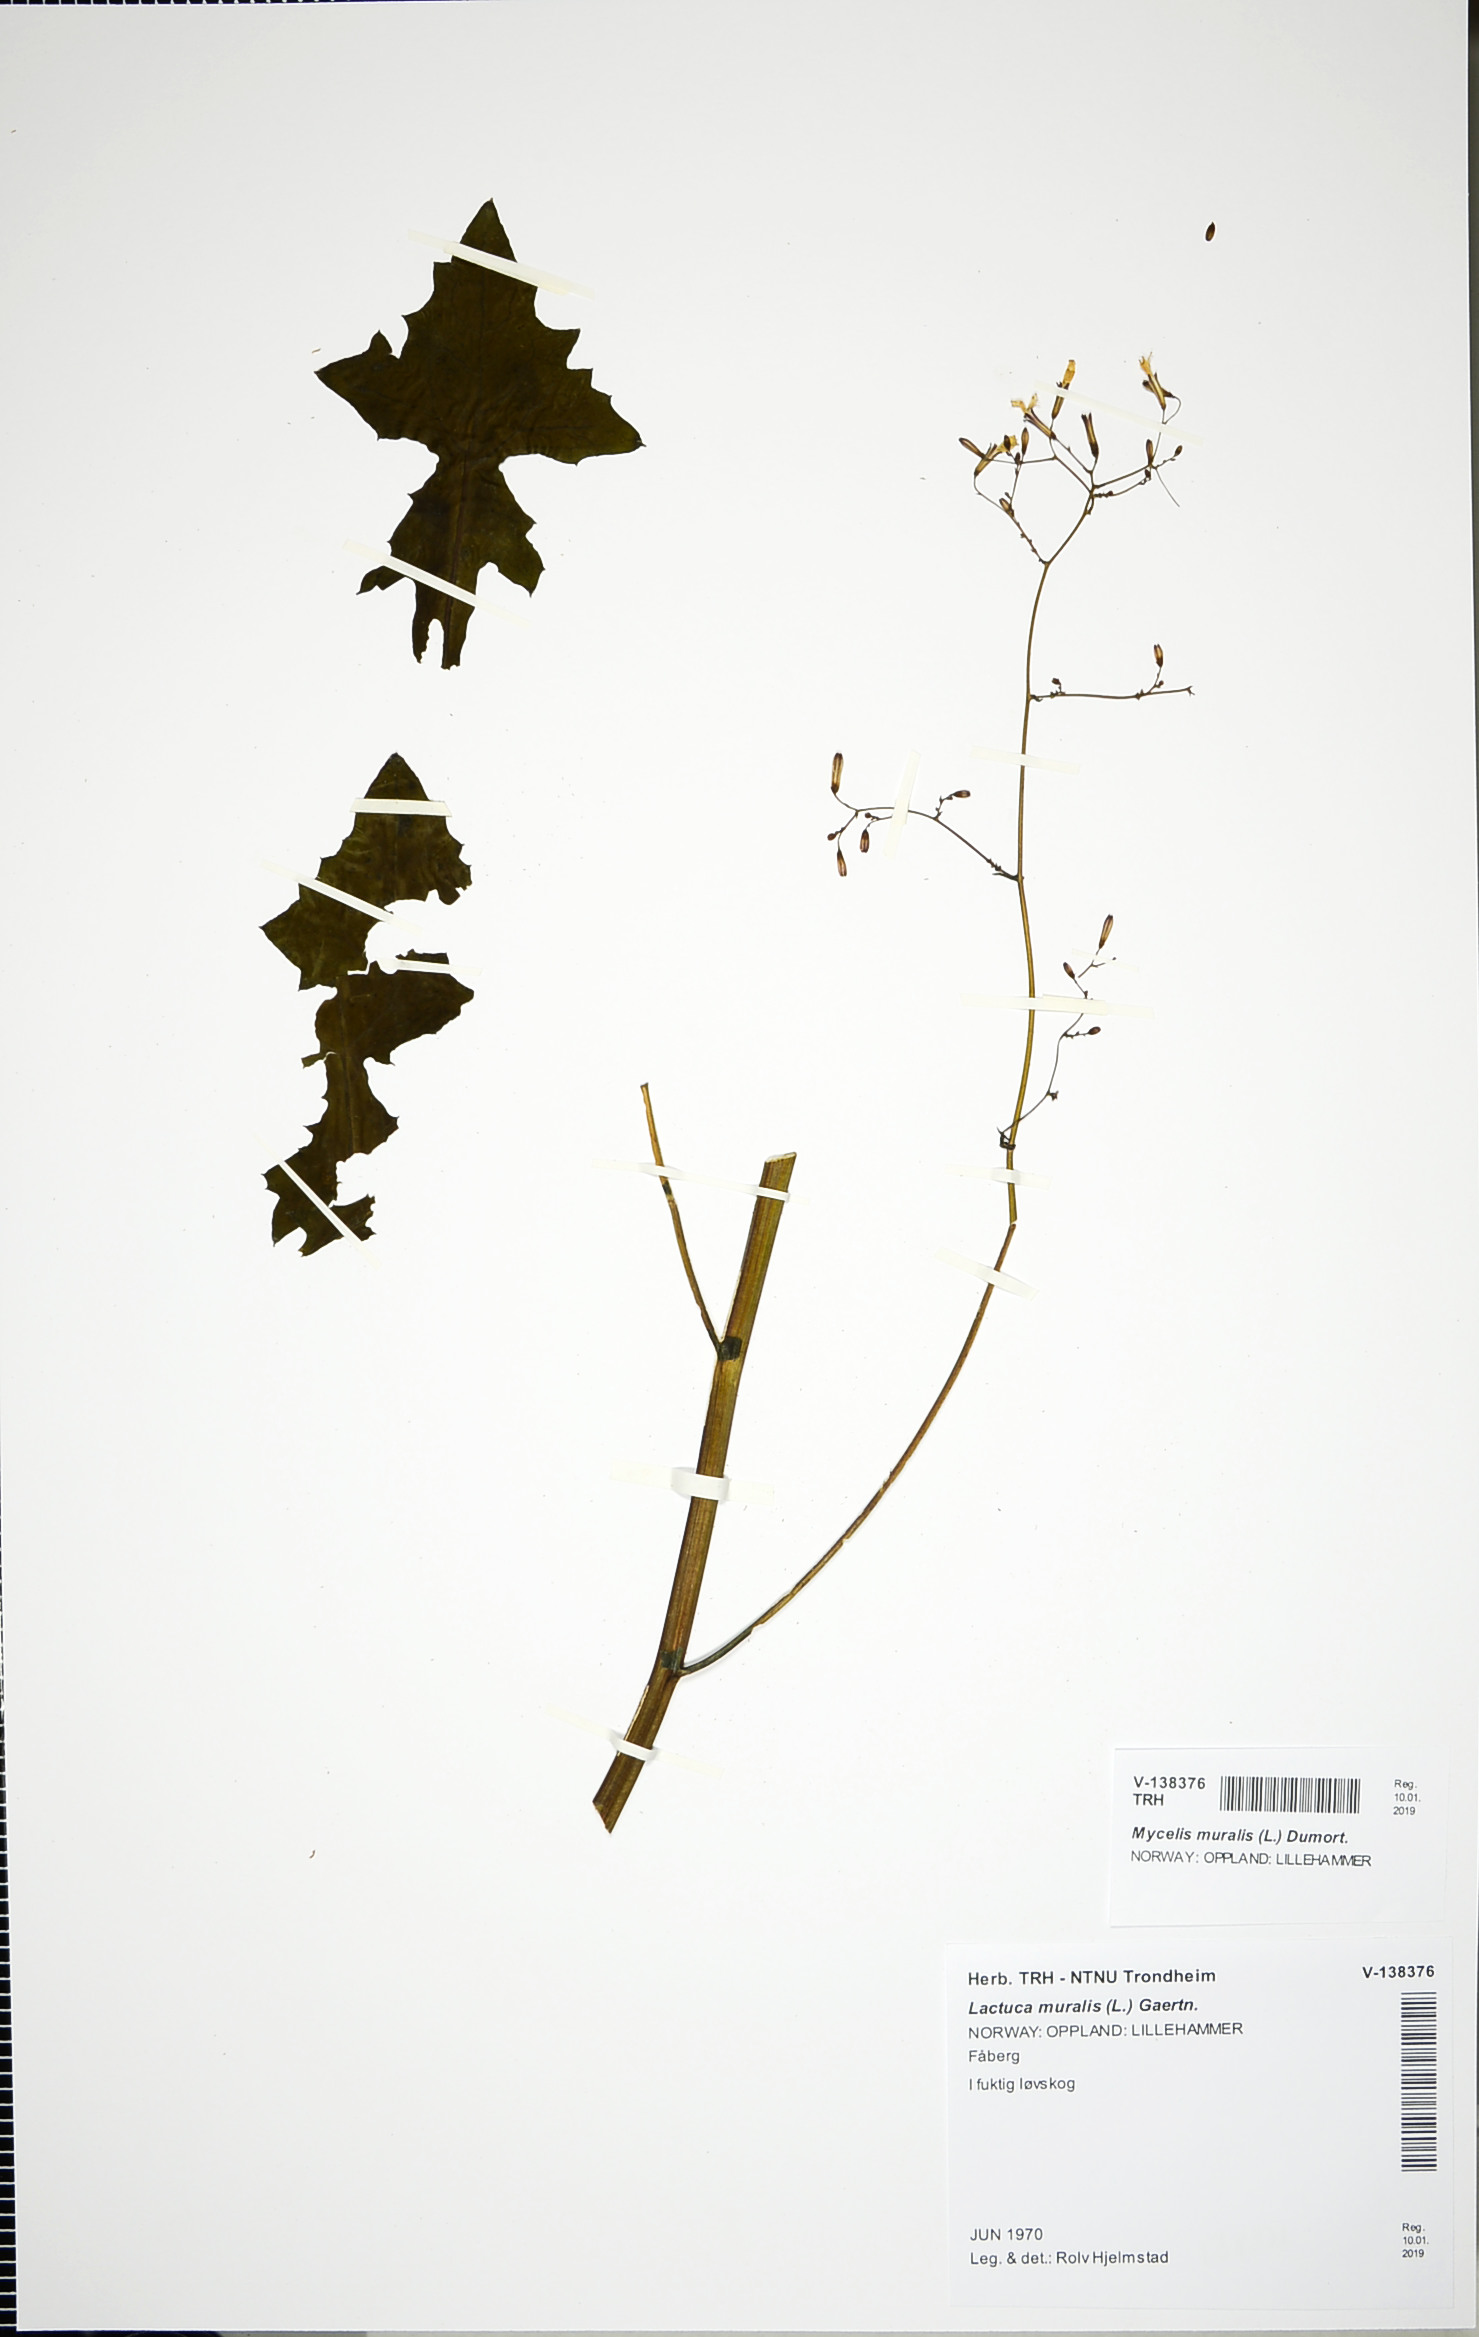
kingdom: Plantae
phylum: Tracheophyta
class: Magnoliopsida
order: Asterales
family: Asteraceae
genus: Mycelis
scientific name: Mycelis muralis
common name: Wall lettuce
